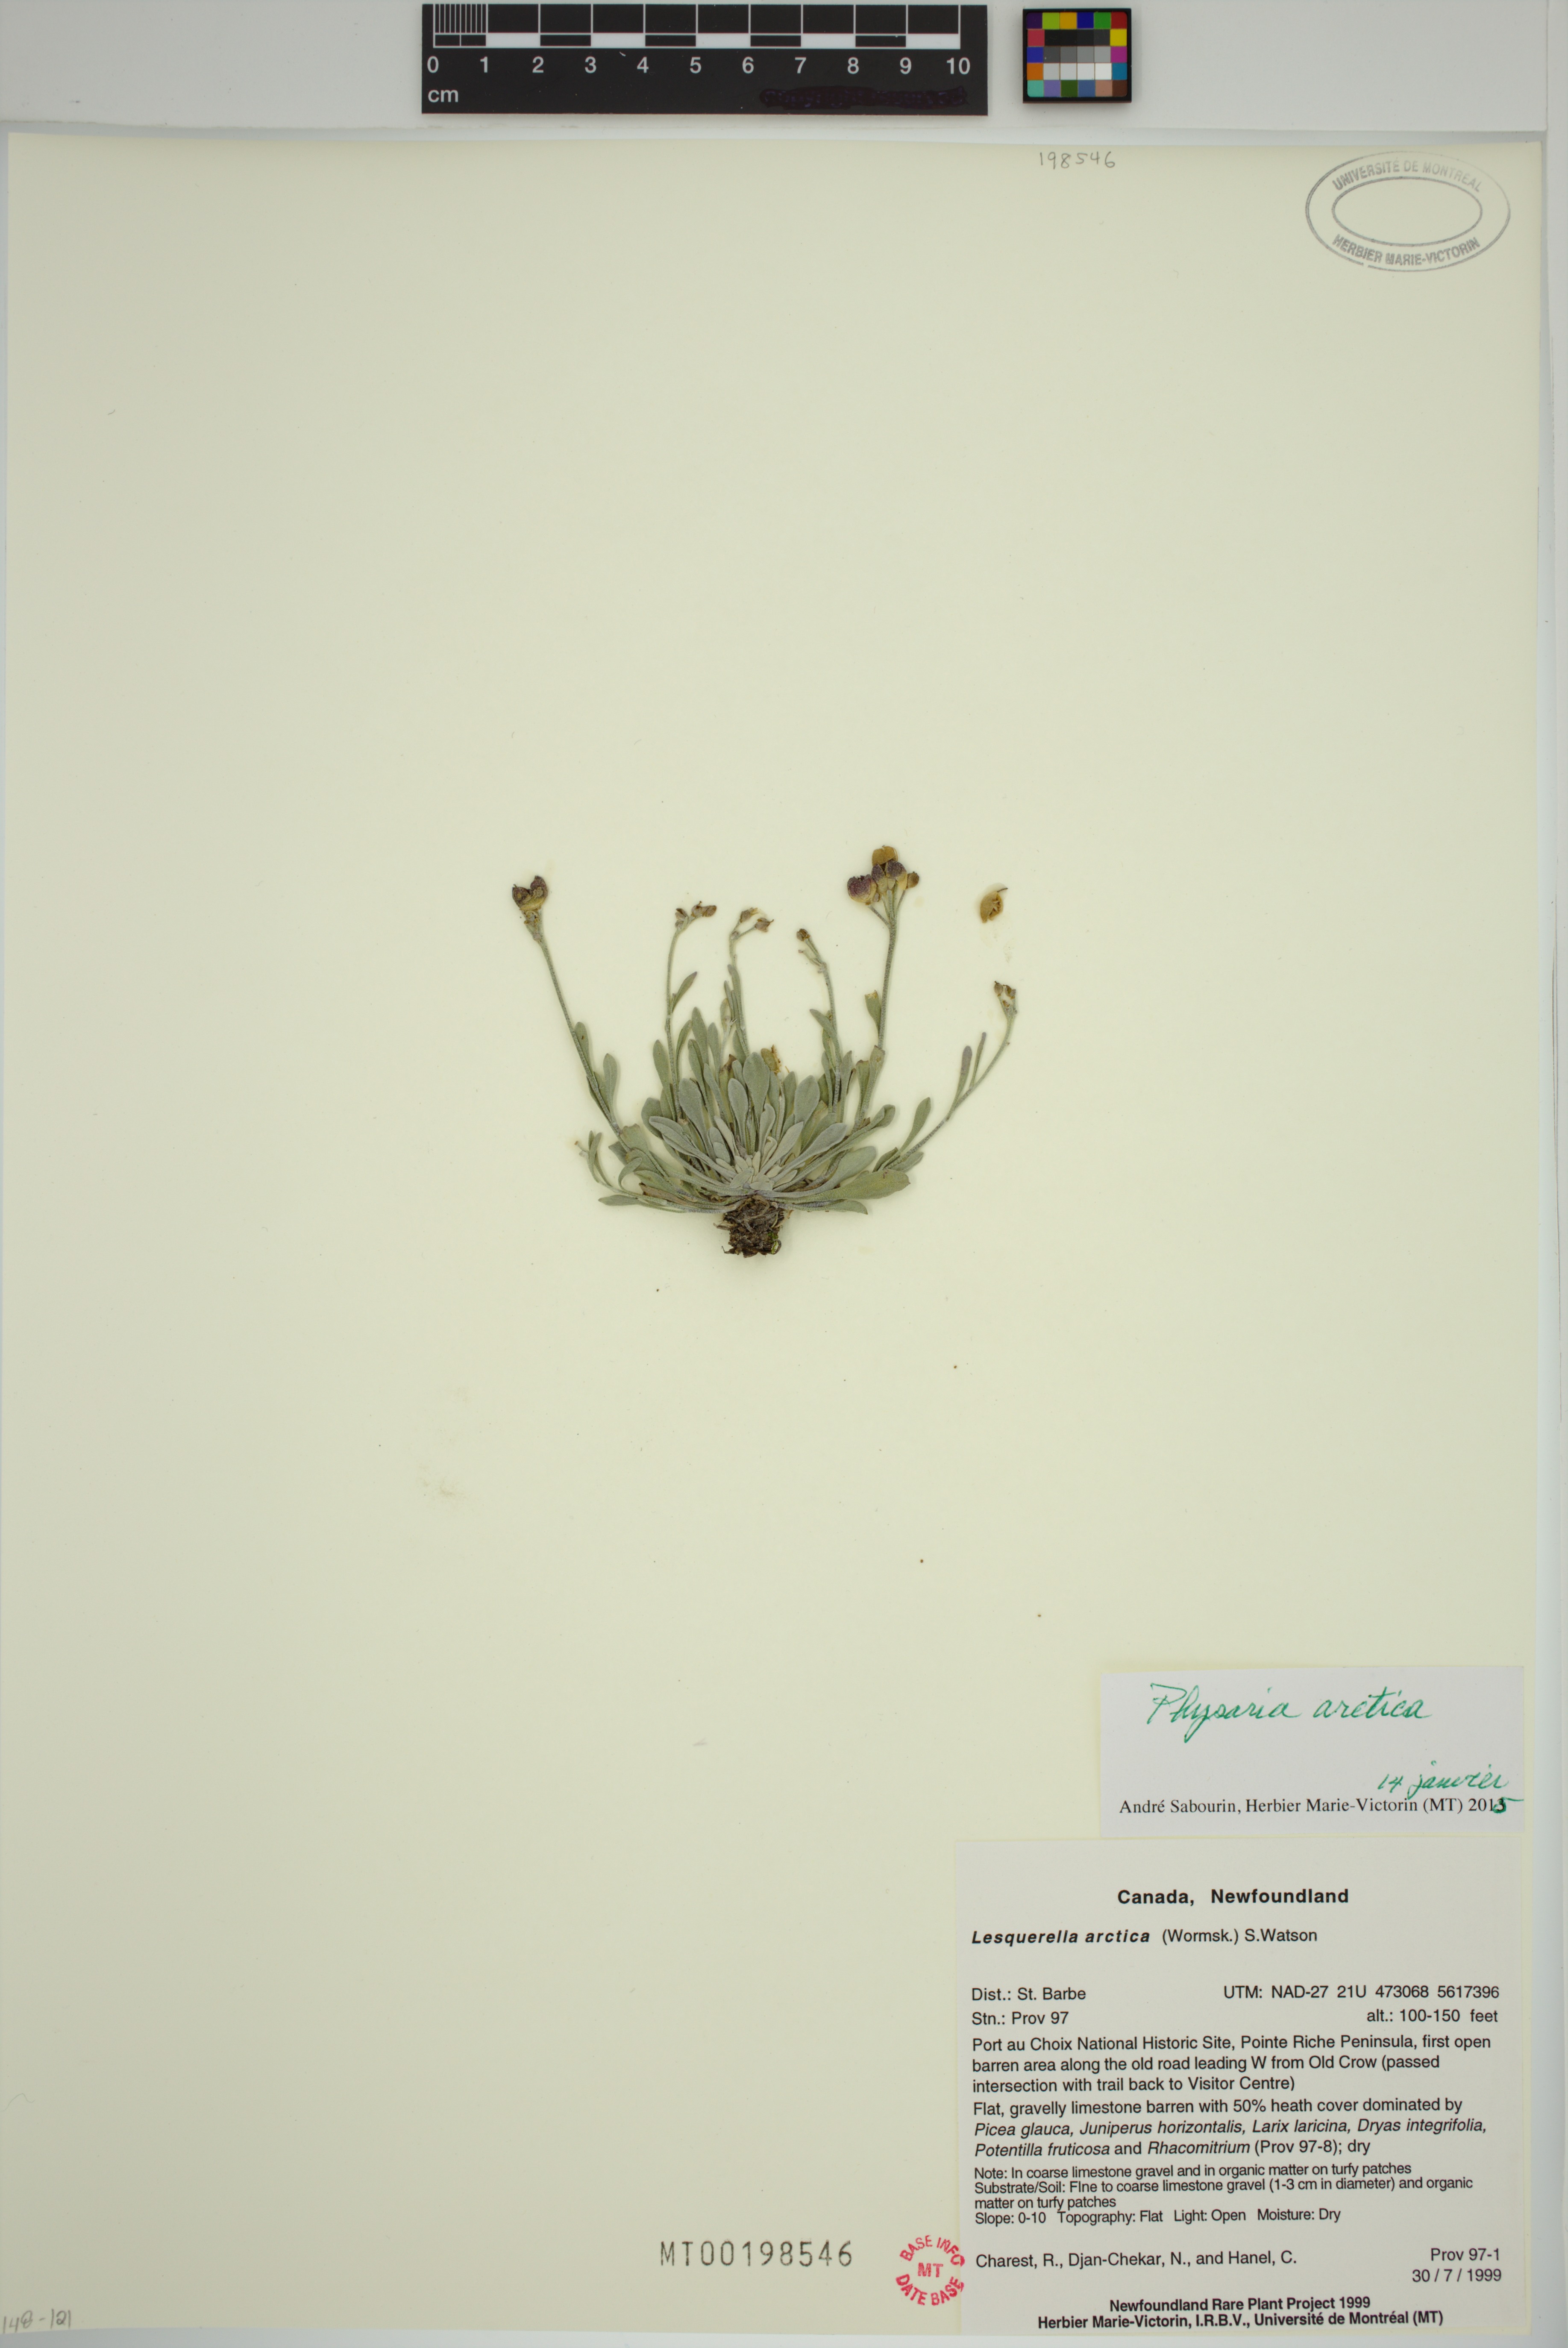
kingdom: Plantae
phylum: Tracheophyta
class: Magnoliopsida
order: Brassicales
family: Brassicaceae
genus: Physaria
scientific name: Physaria arctica
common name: Arctic bladderpod
